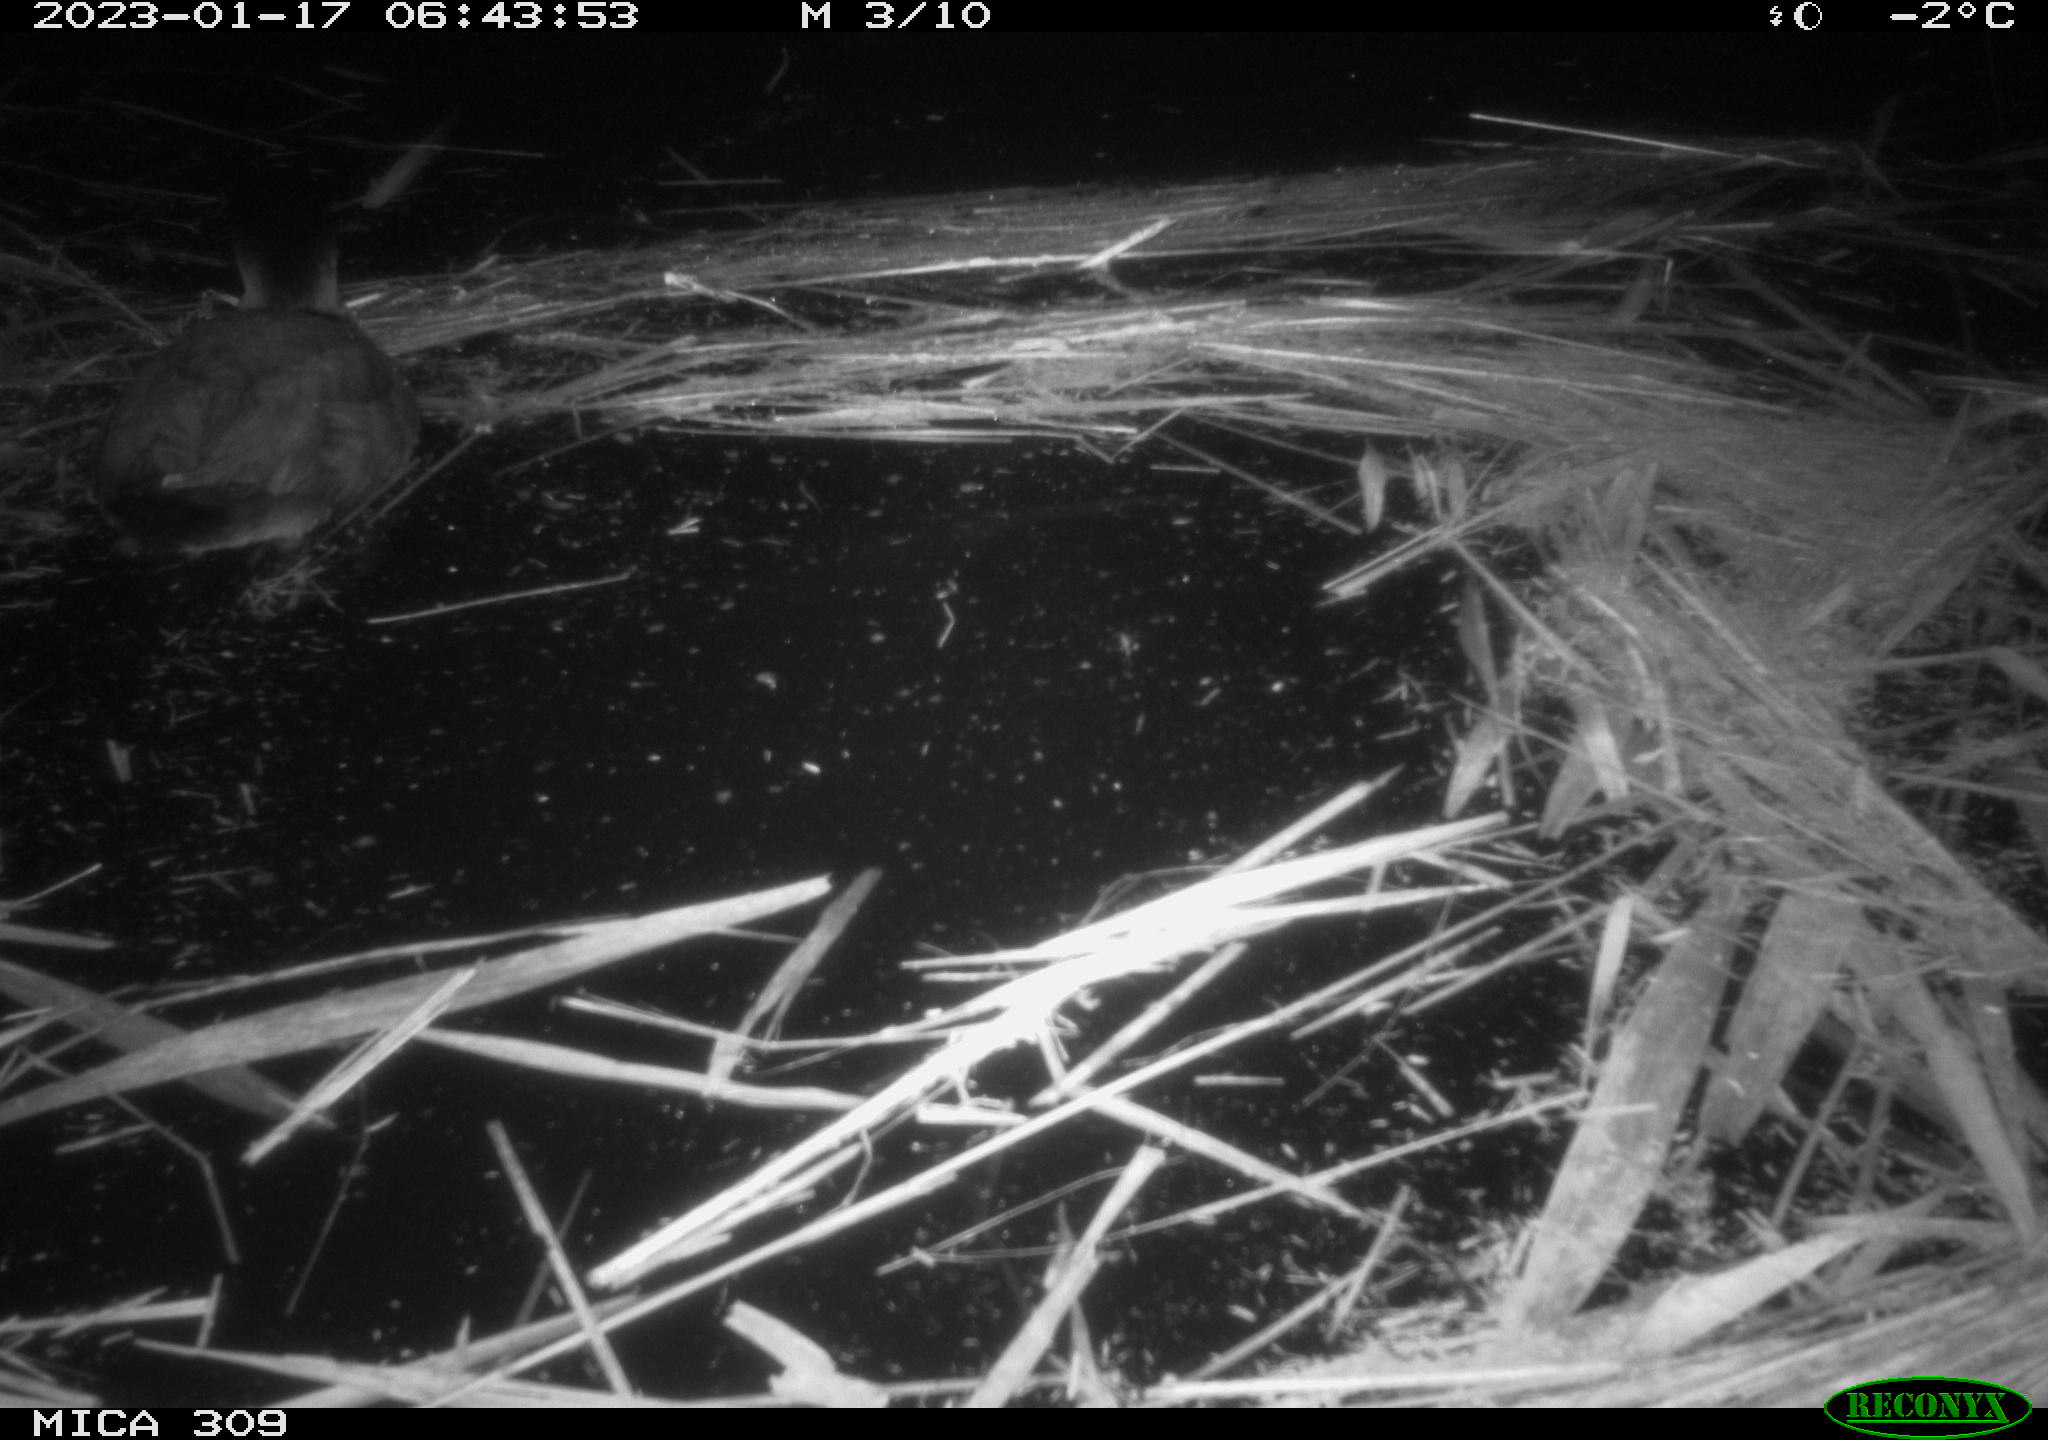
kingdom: Animalia
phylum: Chordata
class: Mammalia
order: Rodentia
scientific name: Rodentia
